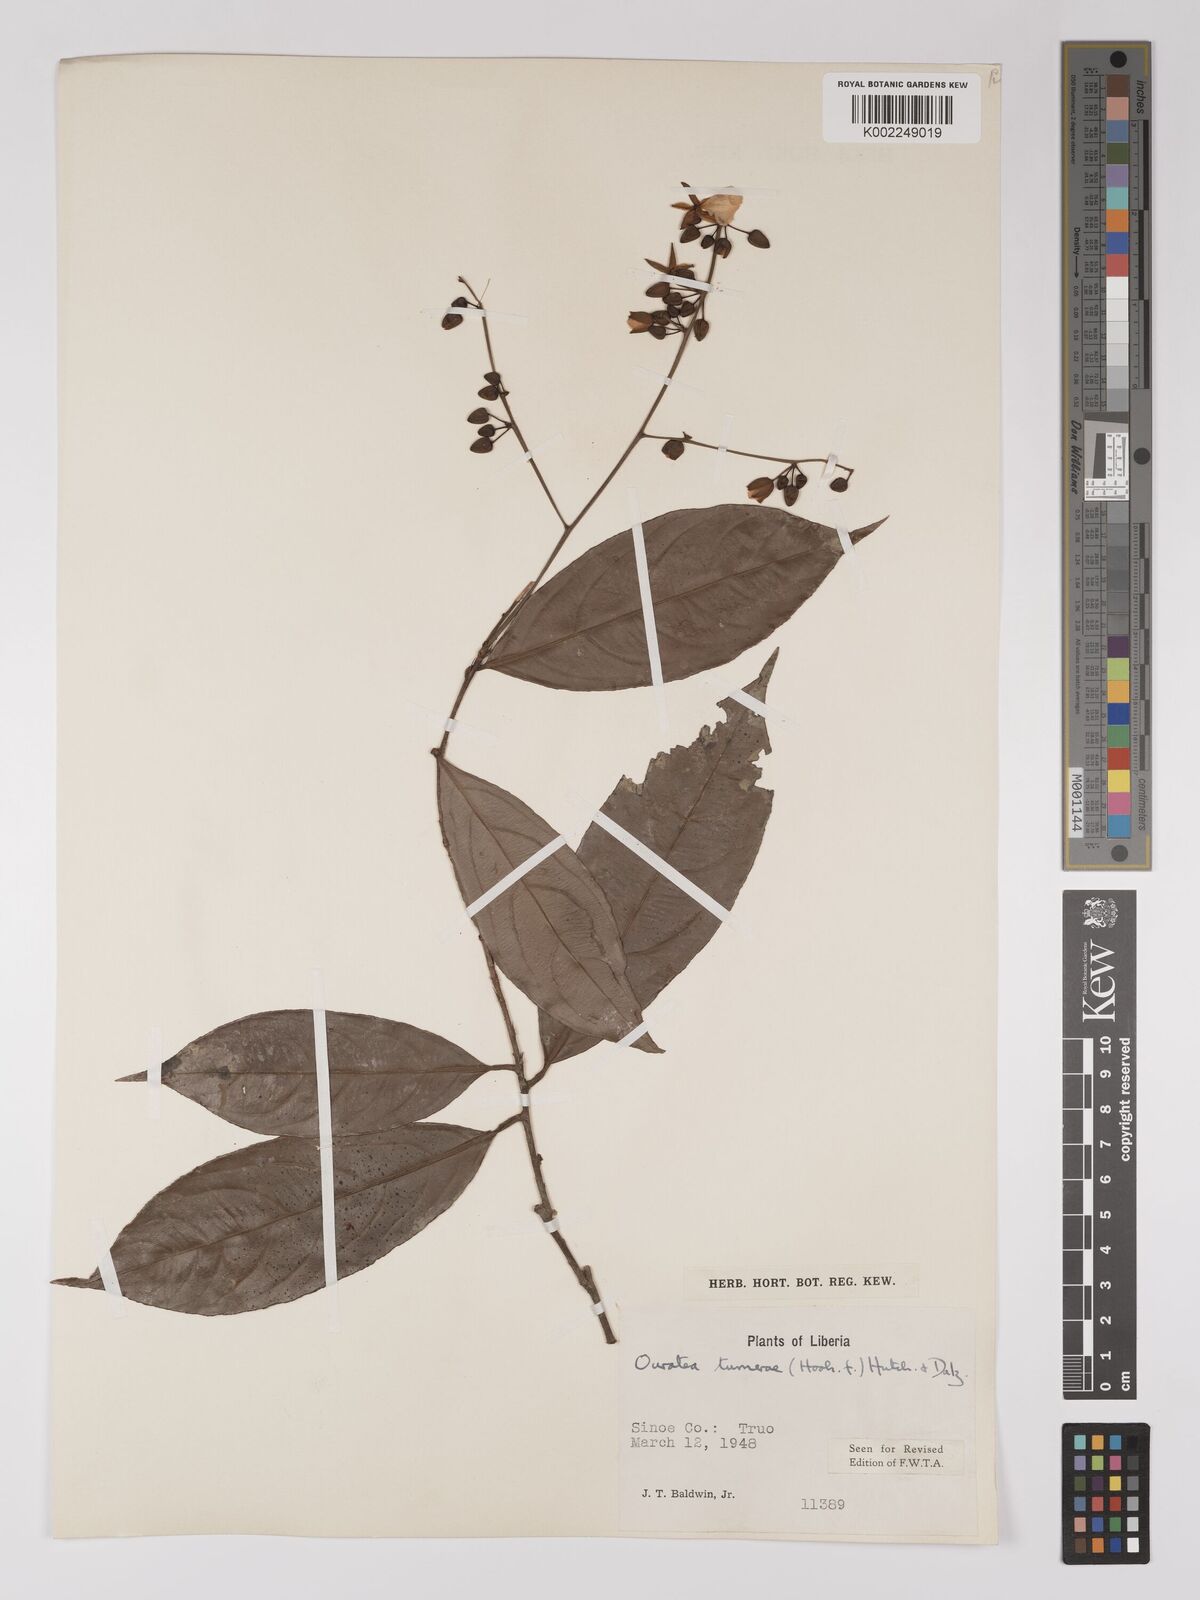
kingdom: Plantae
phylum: Tracheophyta
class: Magnoliopsida
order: Malpighiales
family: Ochnaceae
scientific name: Ochnaceae
